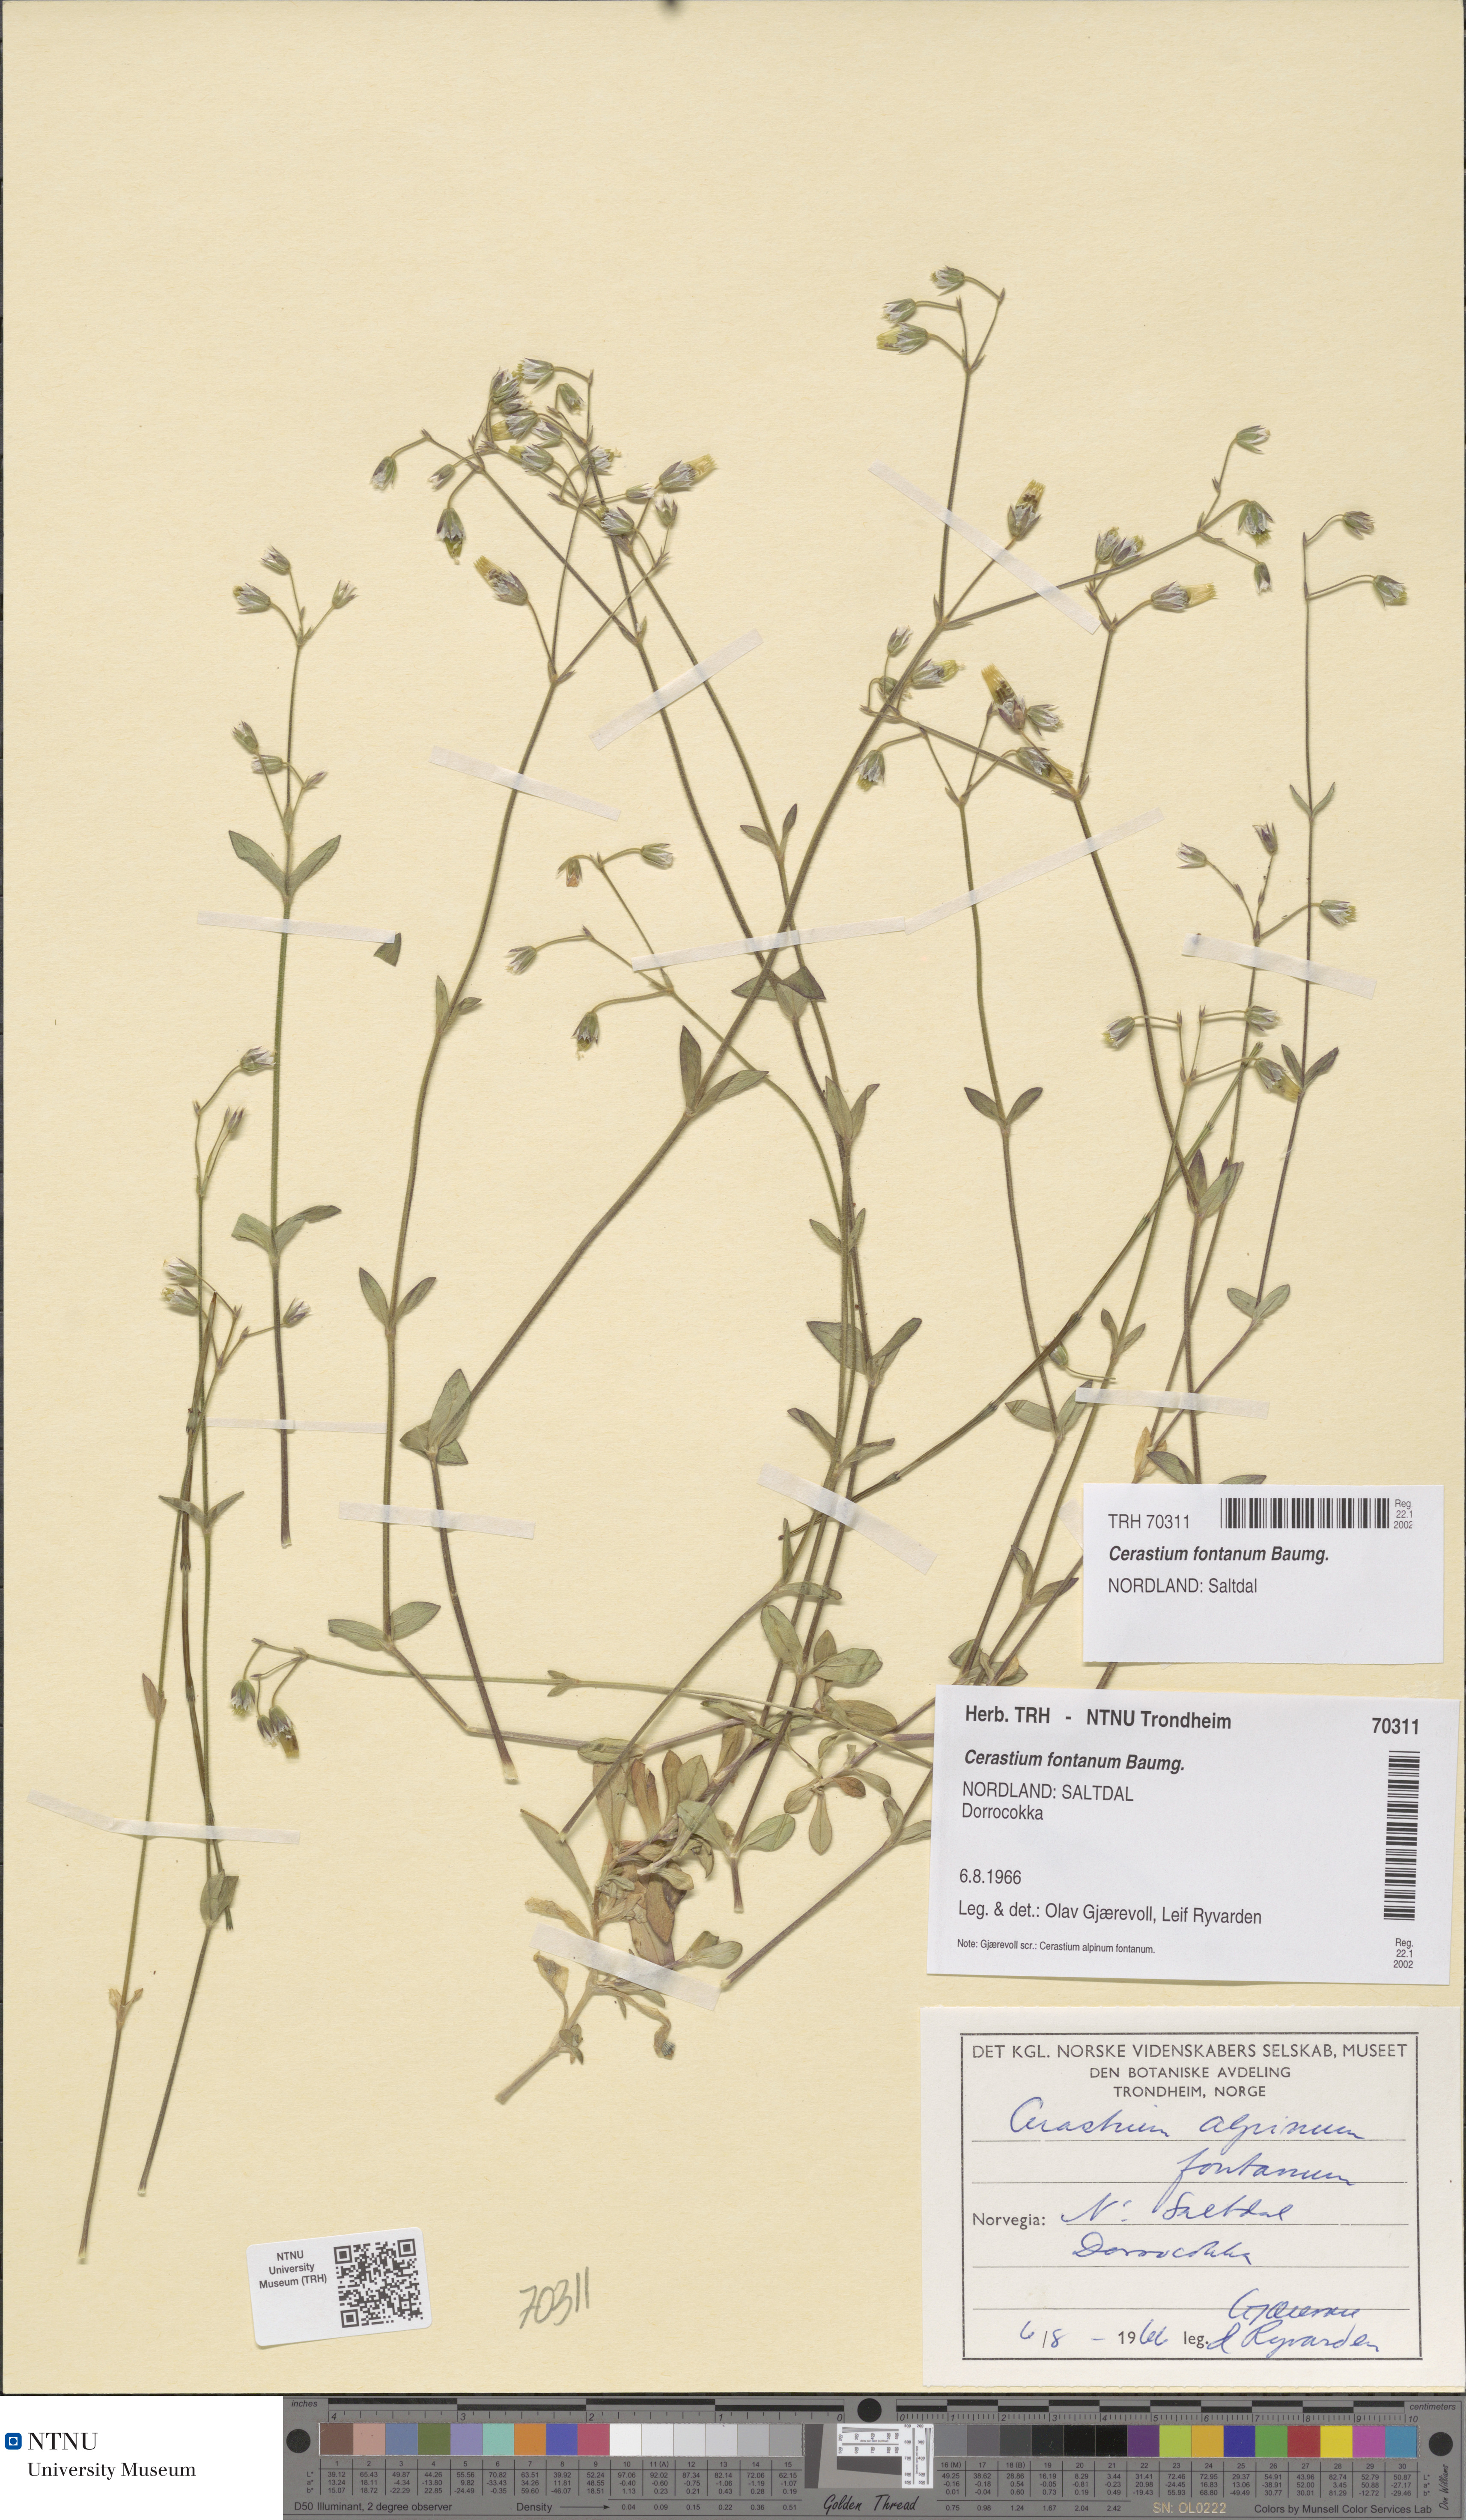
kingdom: Plantae
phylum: Tracheophyta
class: Magnoliopsida
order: Caryophyllales
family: Caryophyllaceae
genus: Cerastium
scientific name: Cerastium fontanum
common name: Common mouse-ear
